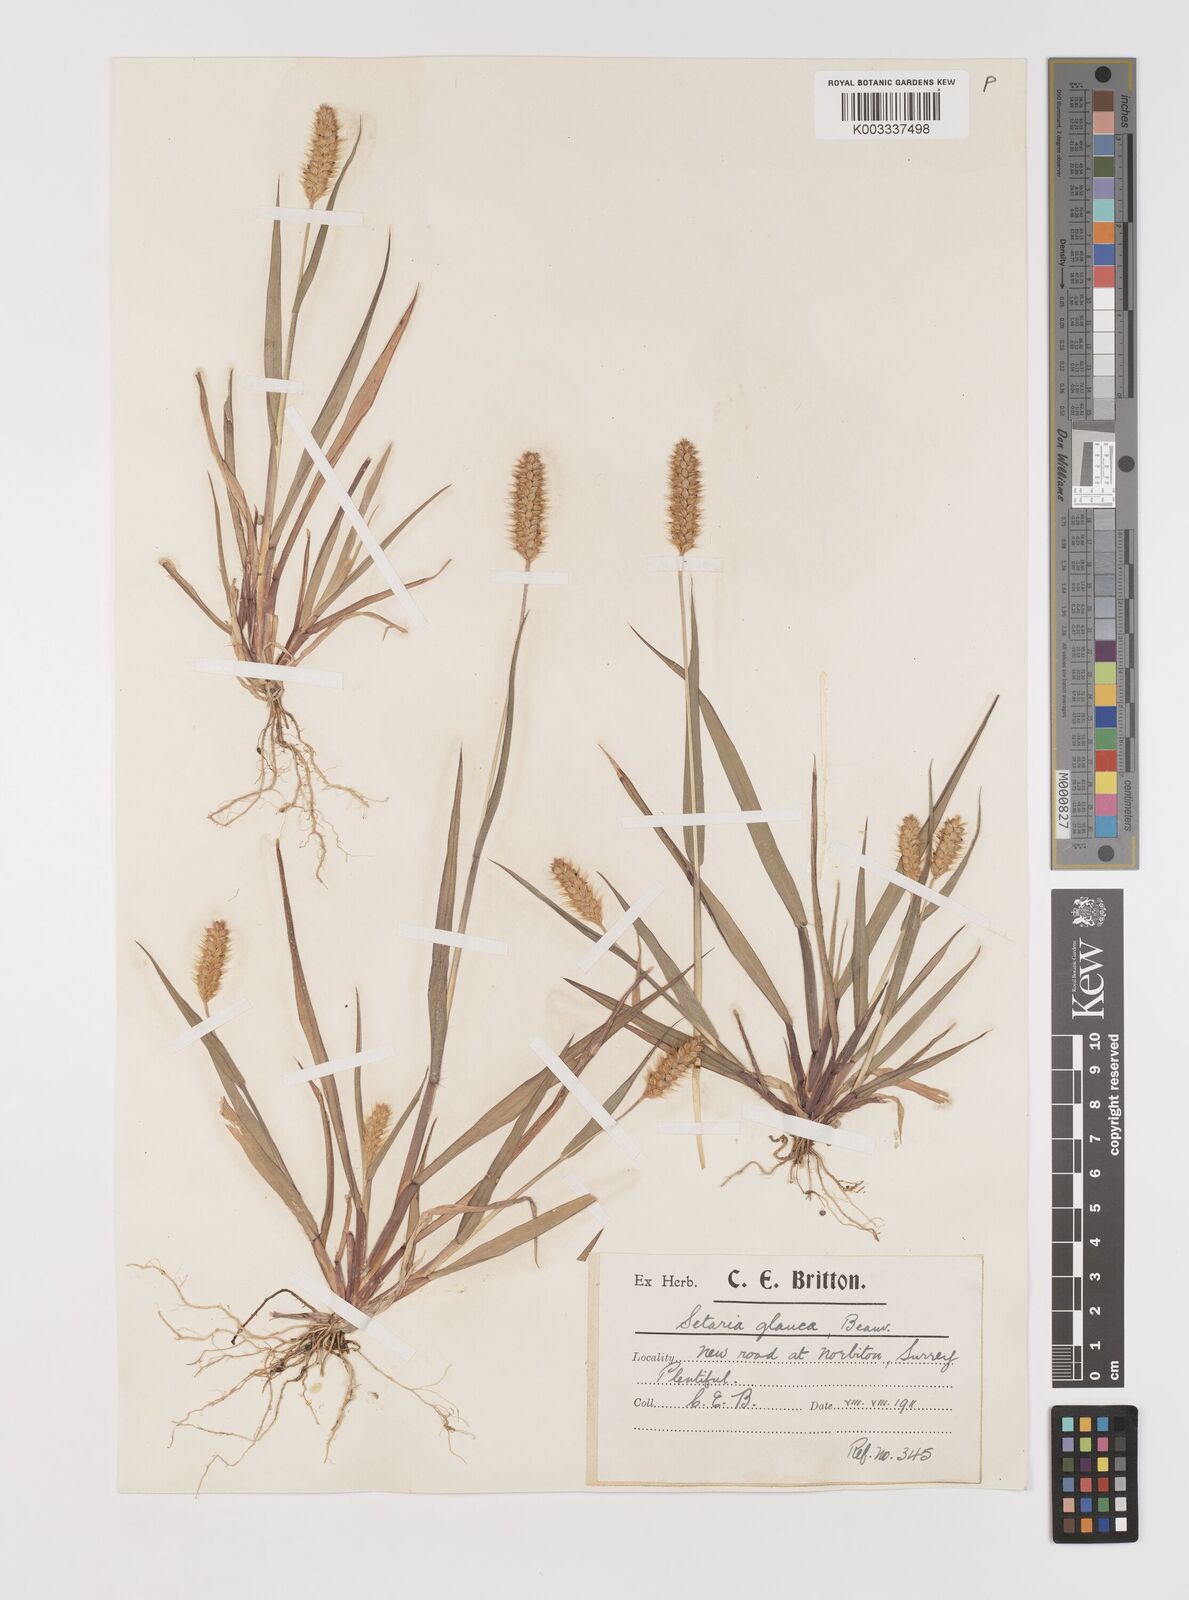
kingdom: Plantae
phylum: Tracheophyta
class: Liliopsida
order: Poales
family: Poaceae
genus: Setaria
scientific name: Setaria pumila
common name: Yellow bristle-grass
